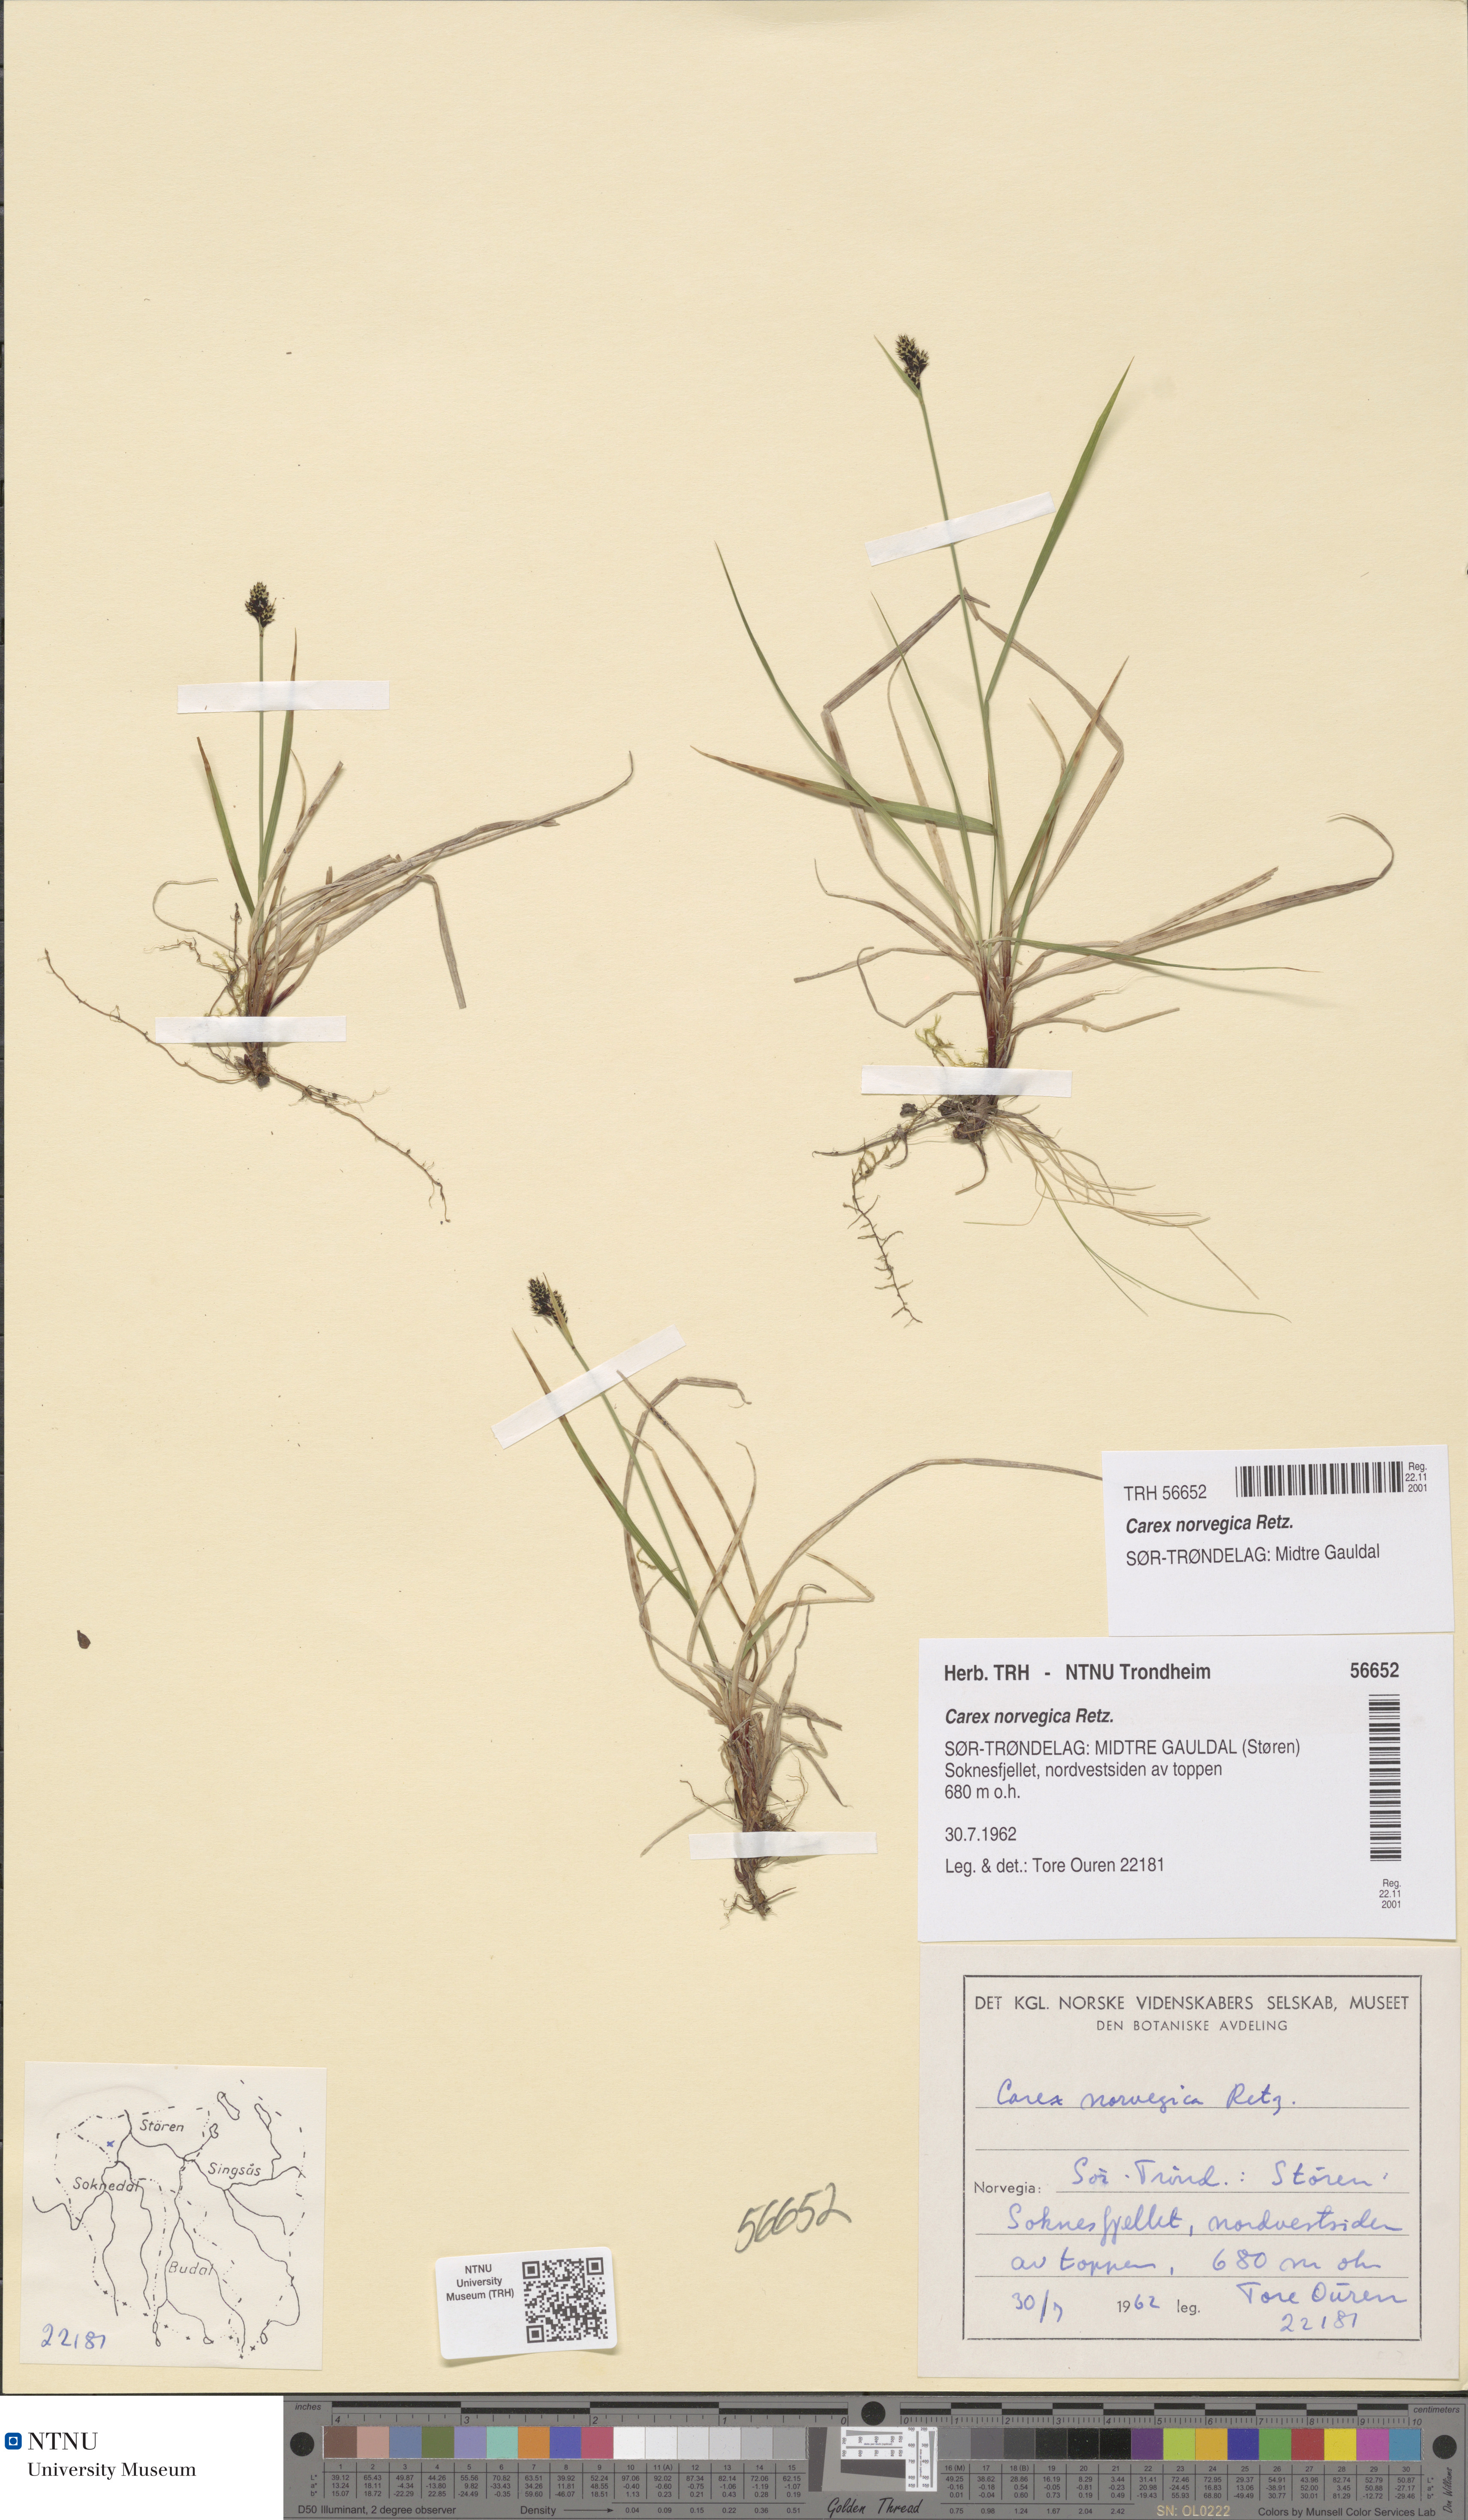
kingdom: Plantae
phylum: Tracheophyta
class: Liliopsida
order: Poales
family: Cyperaceae
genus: Carex
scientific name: Carex norvegica
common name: Close-headed alpine-sedge
